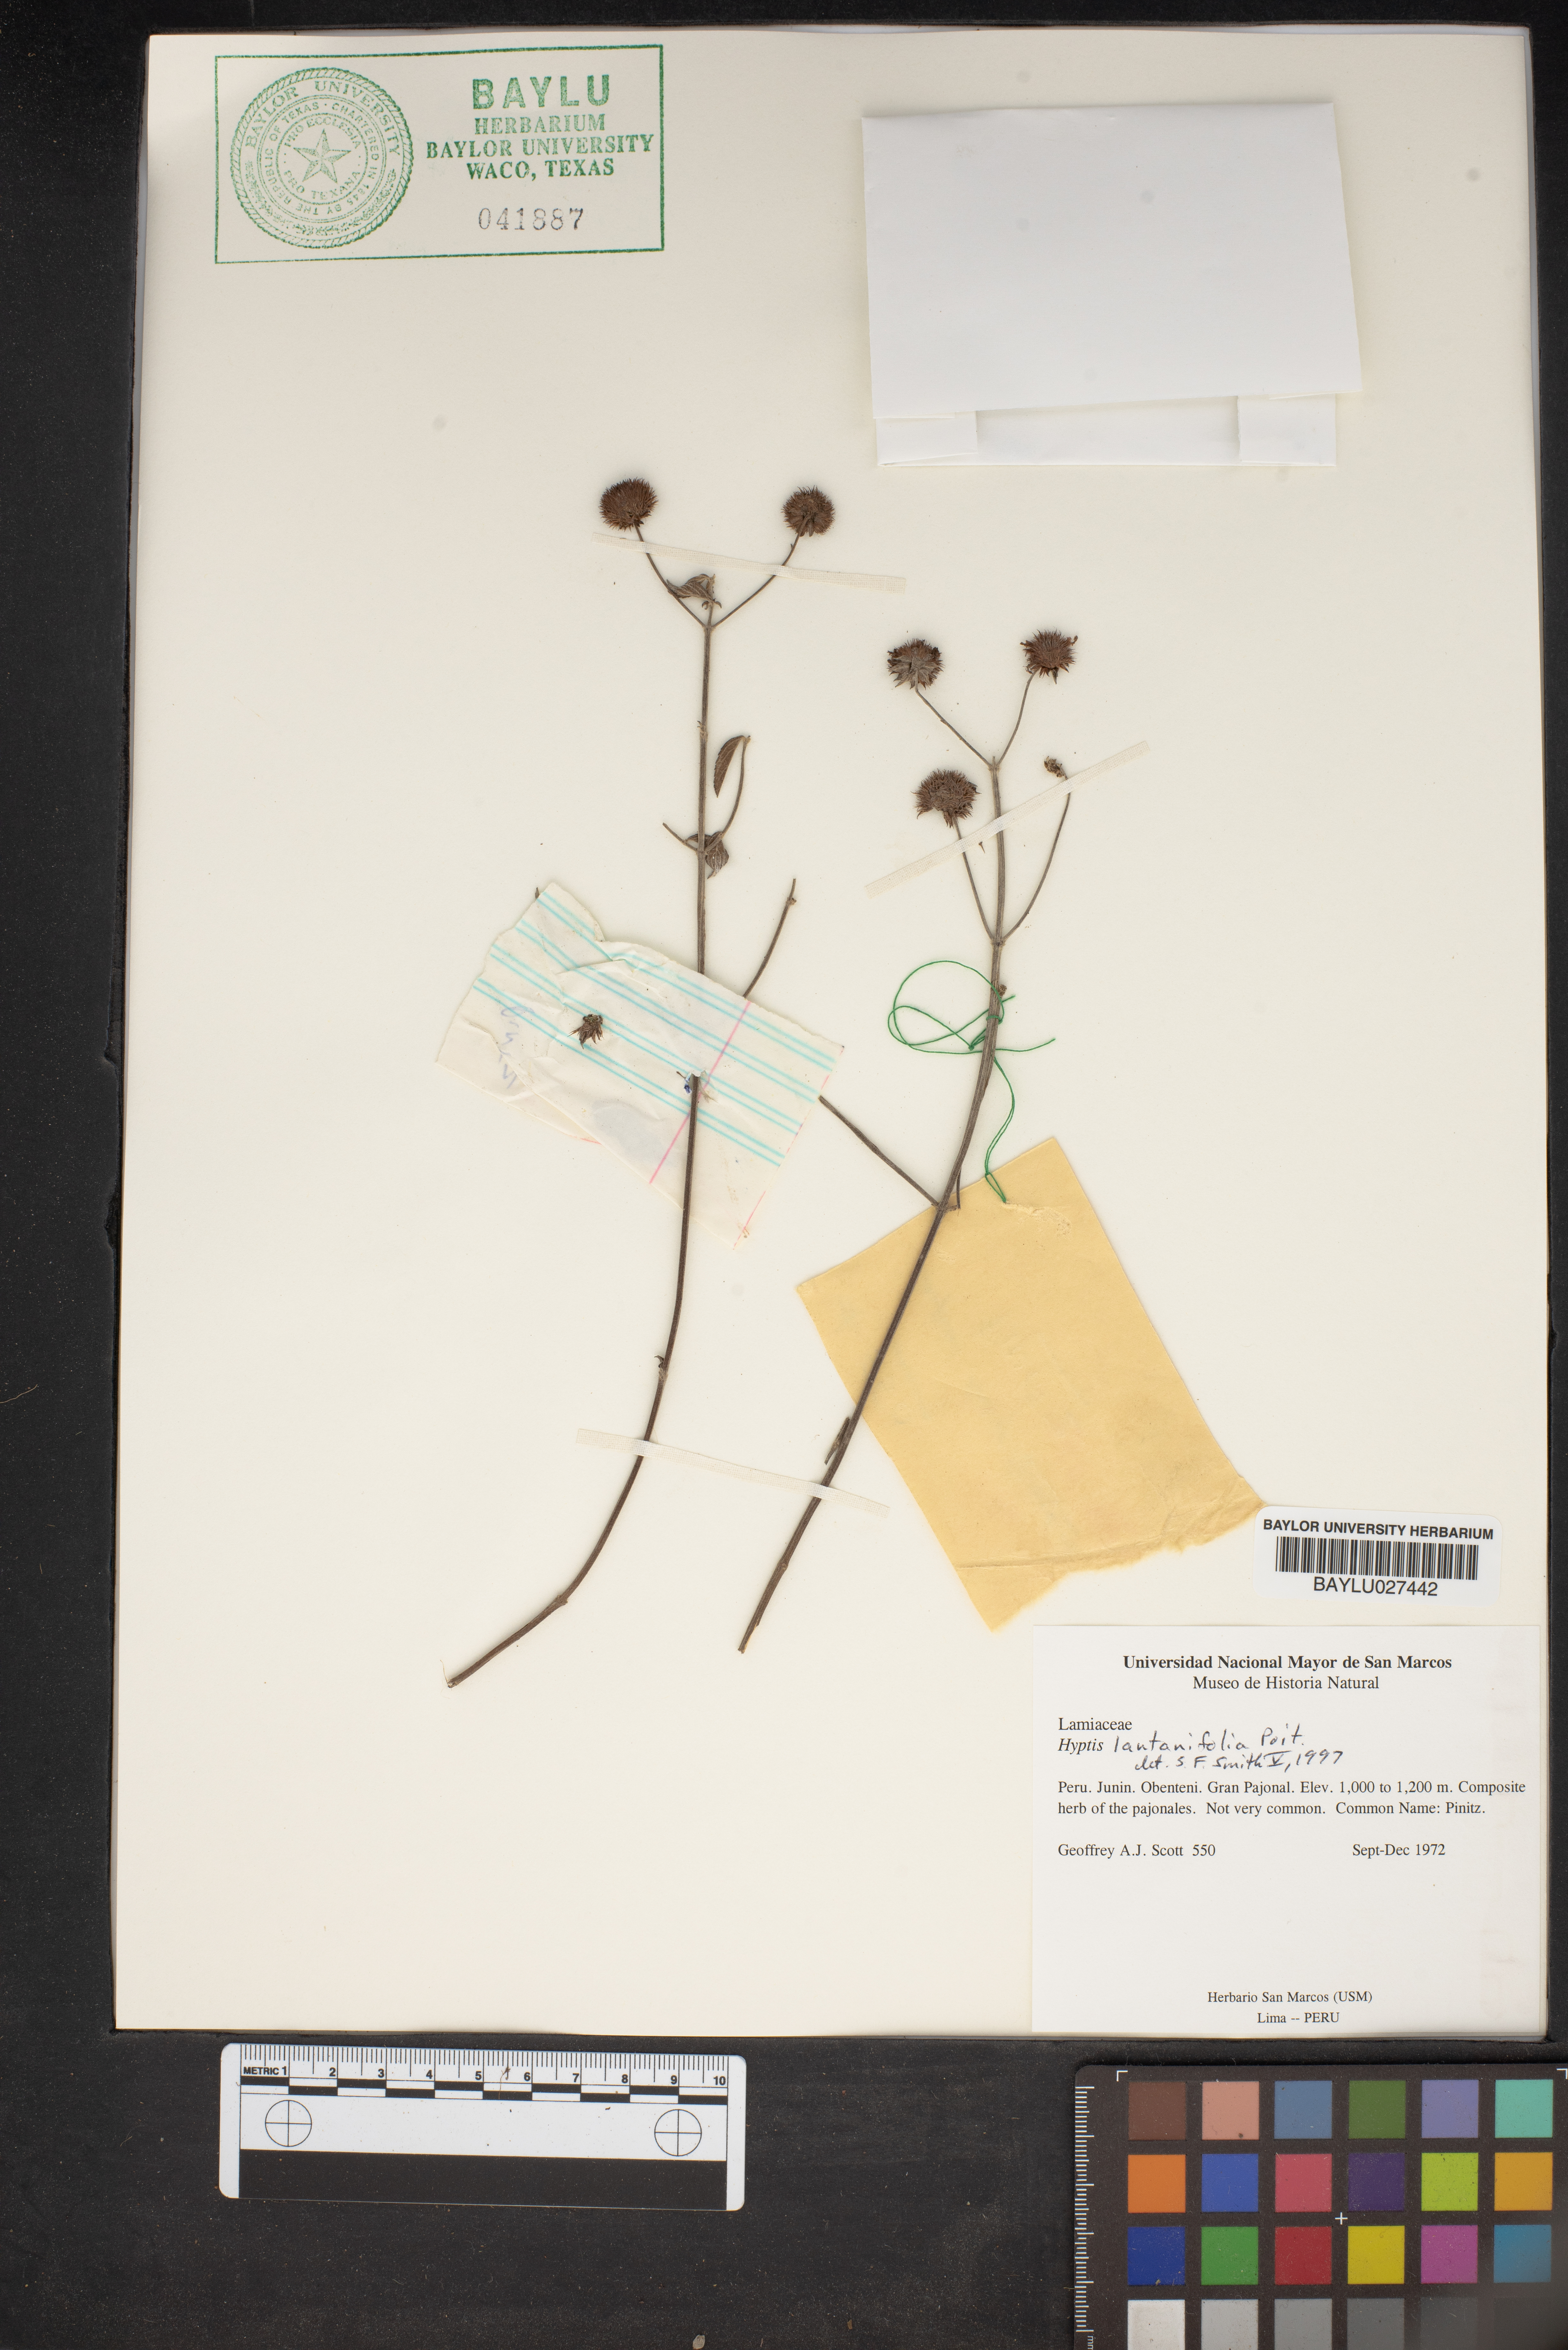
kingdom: Plantae
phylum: Tracheophyta
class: Magnoliopsida
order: Lamiales
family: Lamiaceae
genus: Hyptis
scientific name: Hyptis lantanifolia
